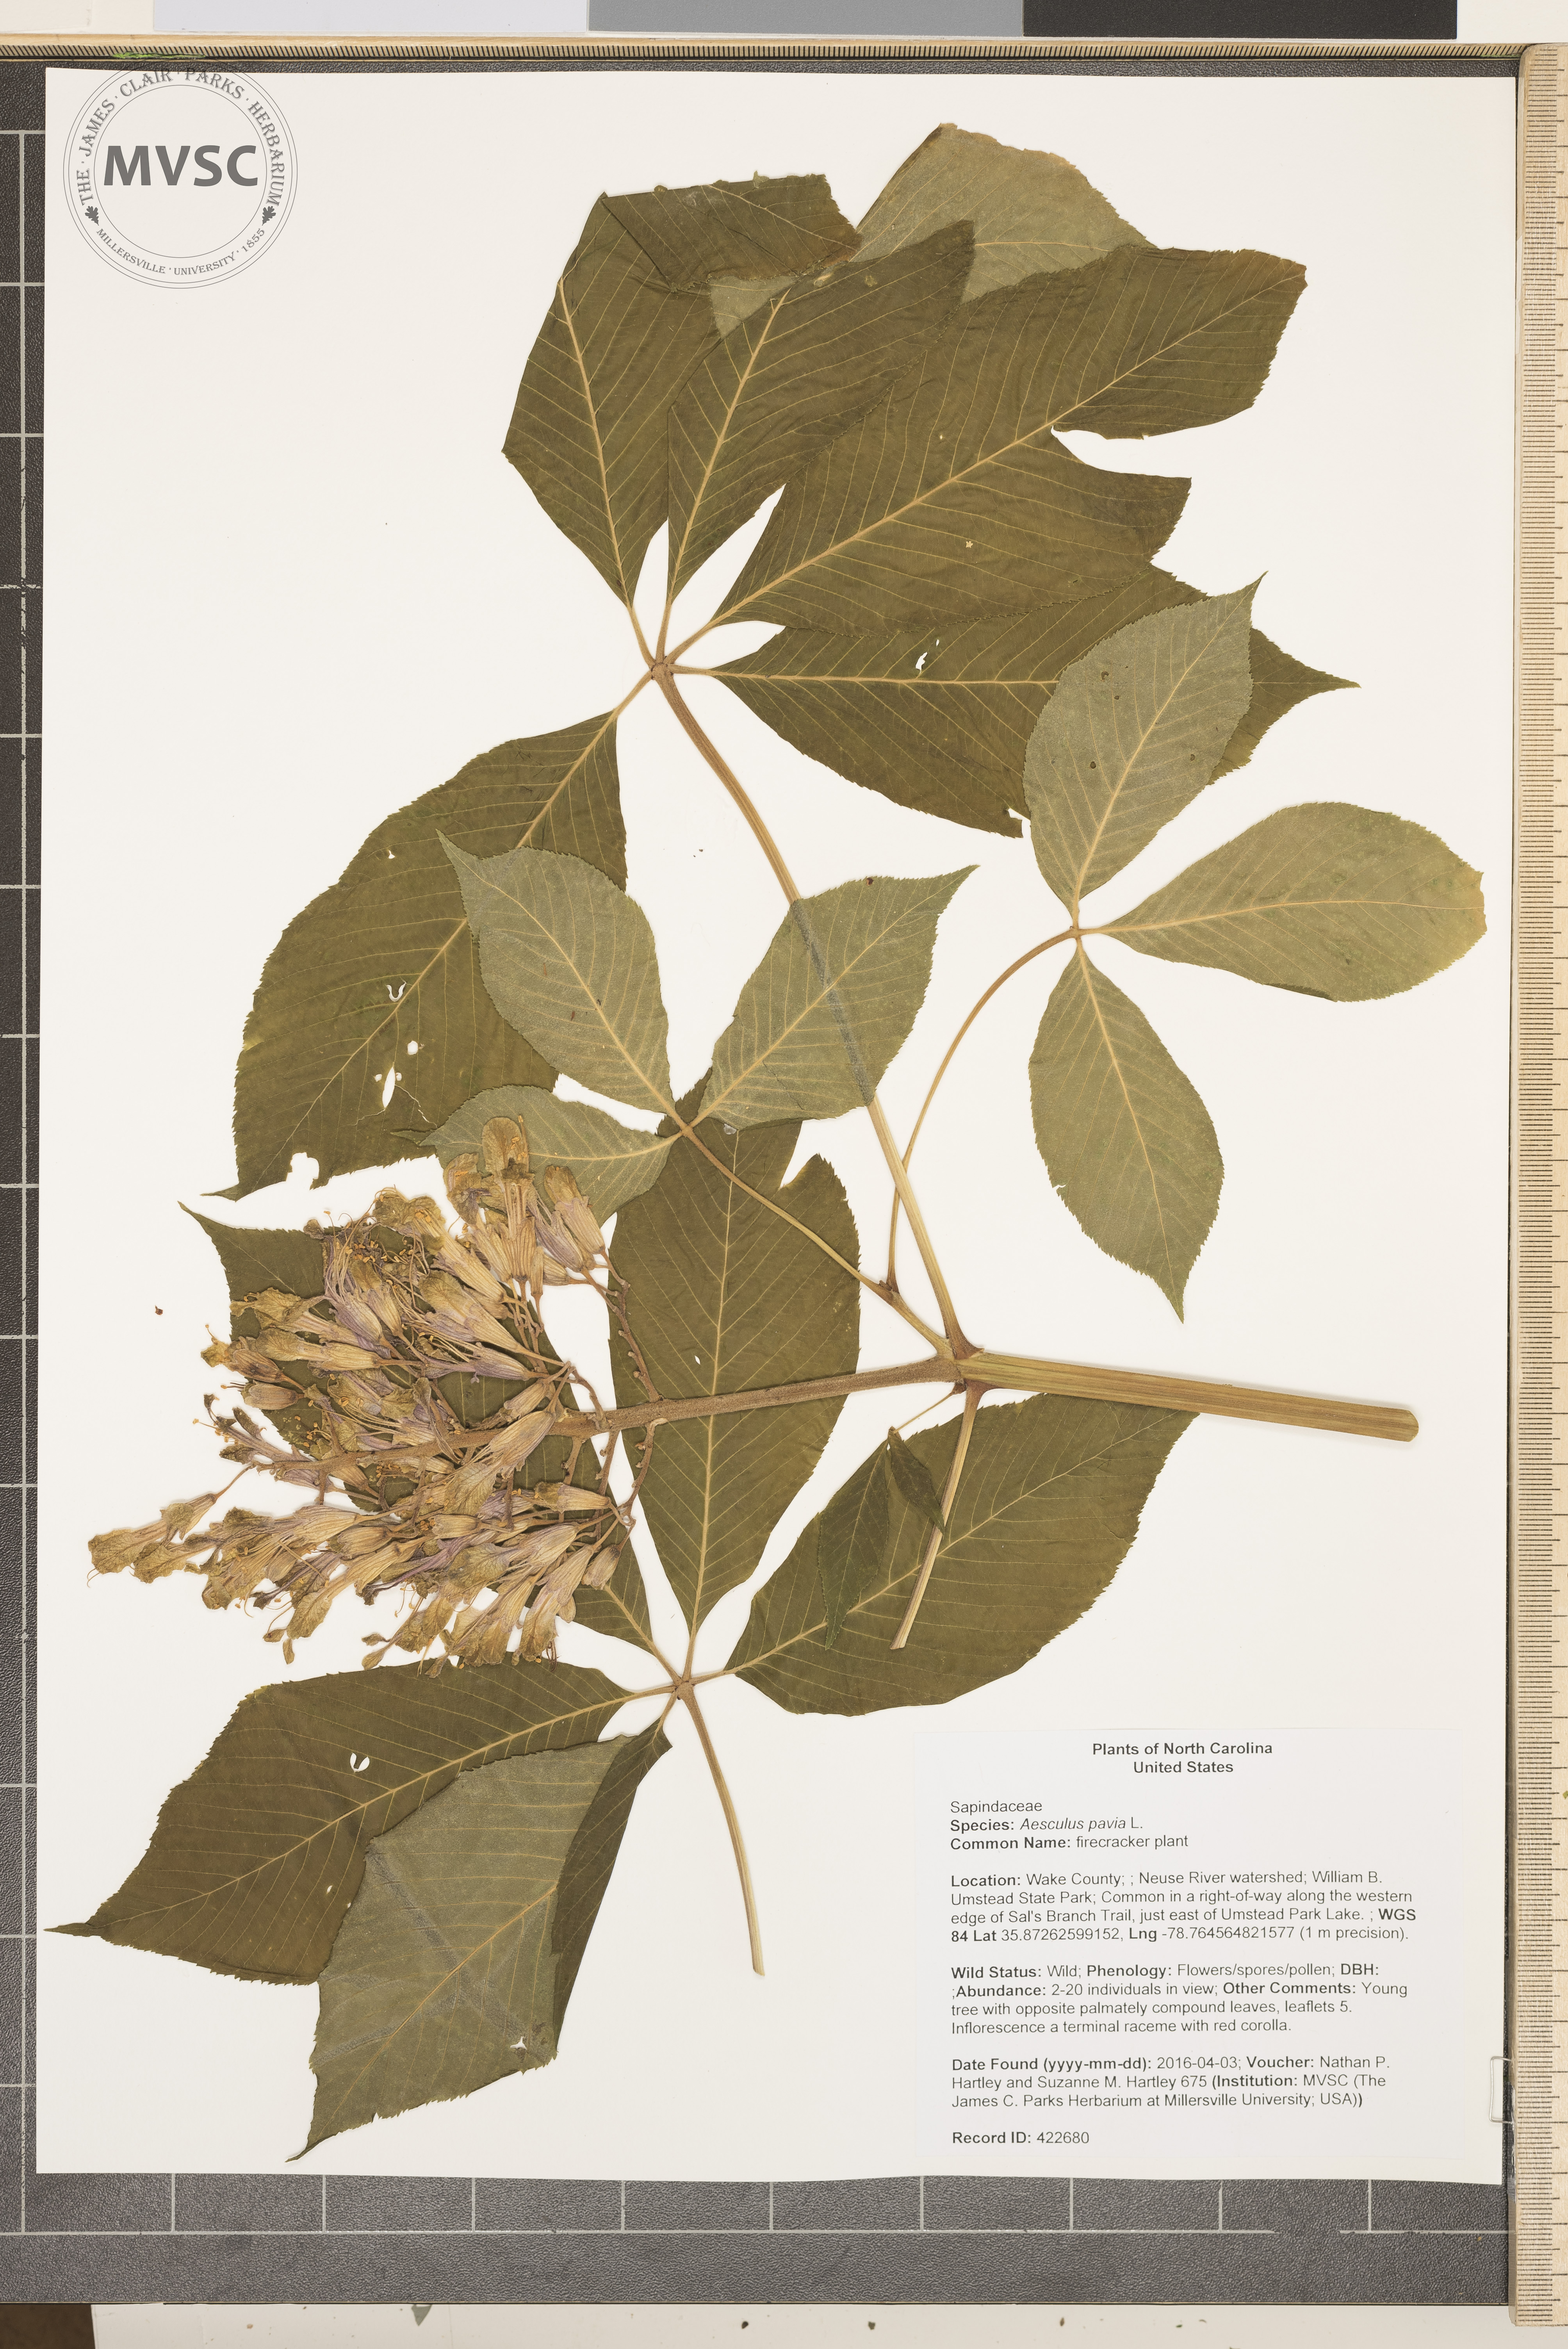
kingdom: Plantae
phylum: Tracheophyta
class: Magnoliopsida
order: Sapindales
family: Sapindaceae
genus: Aesculus
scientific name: Aesculus pavia
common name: firecracker plant
